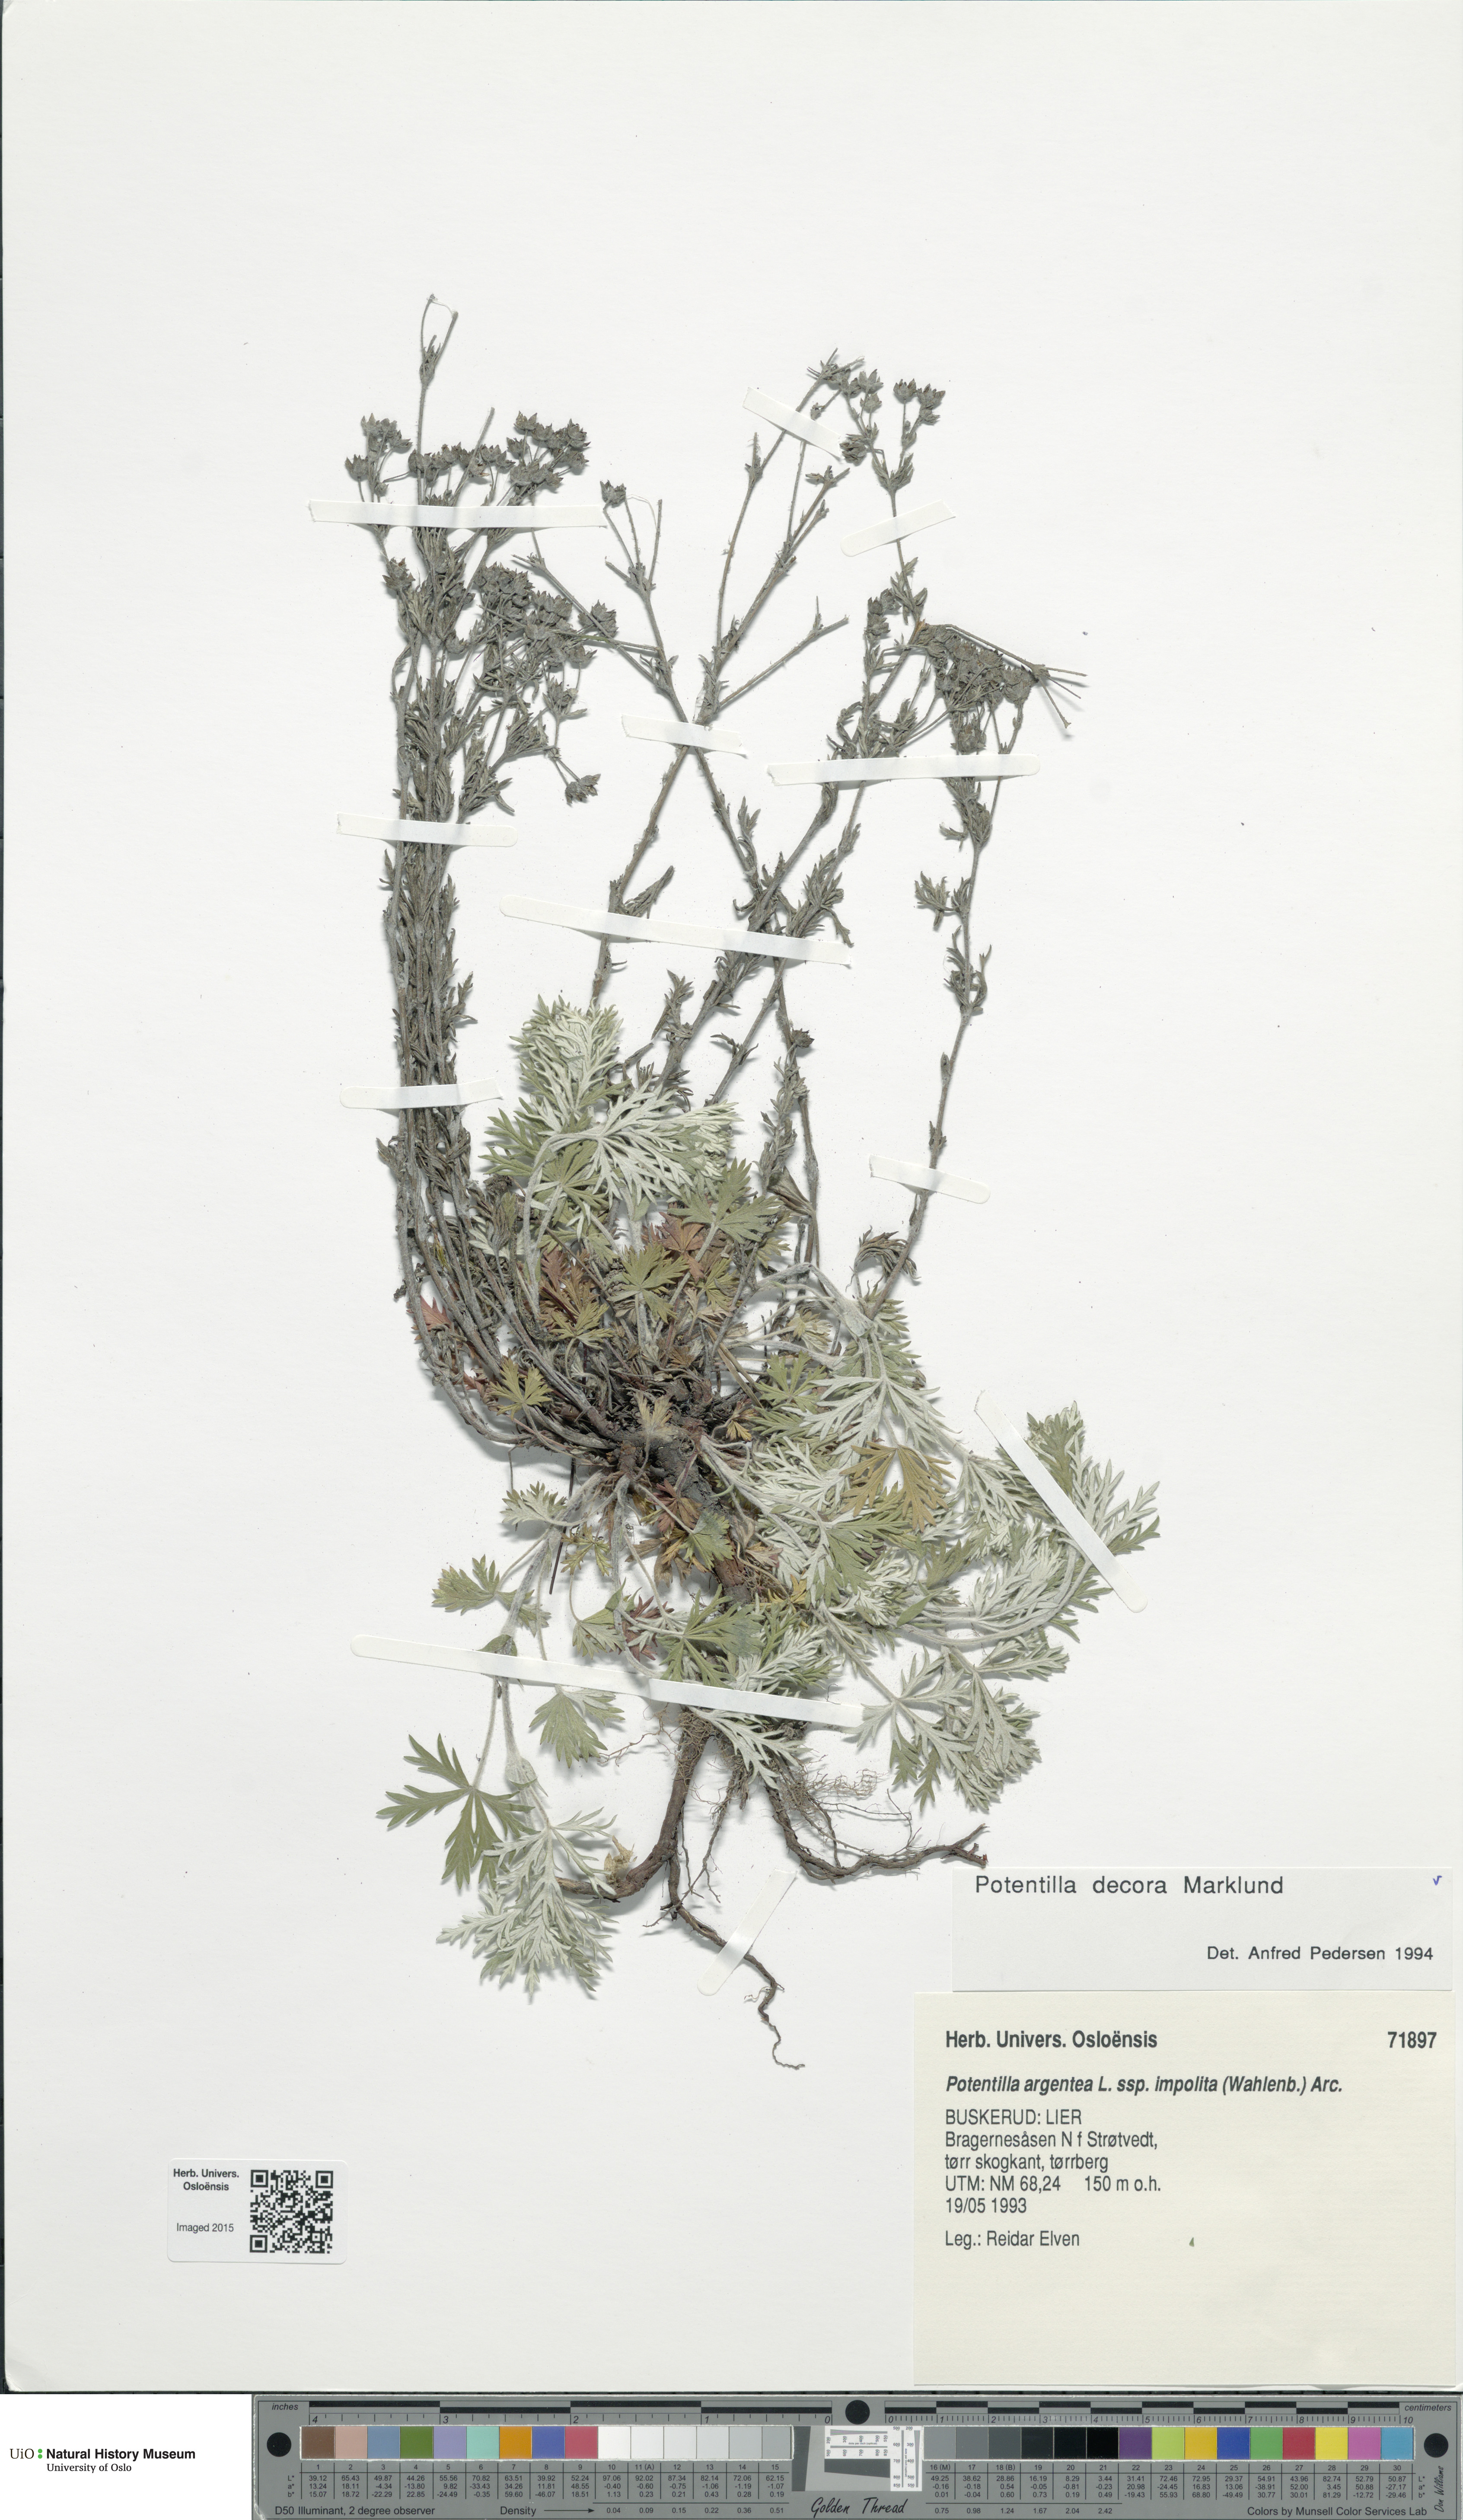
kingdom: Plantae
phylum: Tracheophyta
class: Magnoliopsida
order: Rosales
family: Rosaceae
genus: Potentilla
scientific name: Potentilla neglecta
